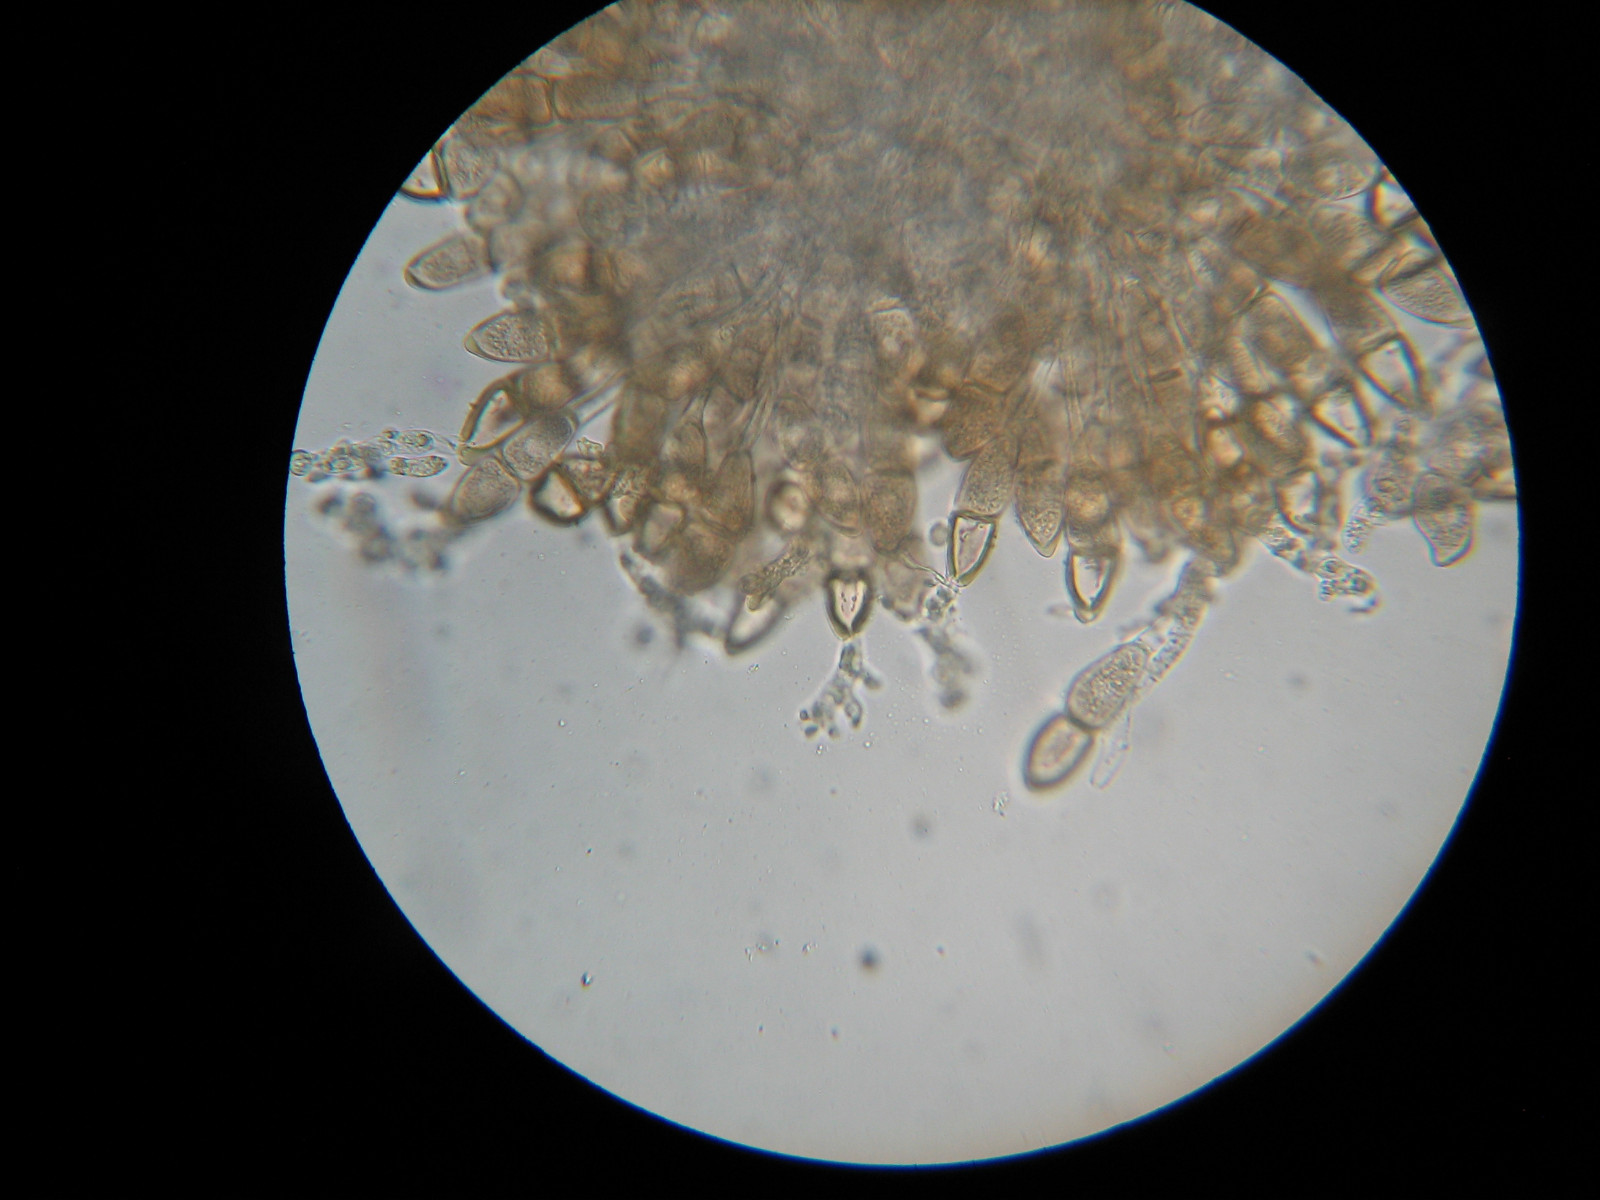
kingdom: Fungi
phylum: Basidiomycota
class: Pucciniomycetes
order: Pucciniales
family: Pucciniaceae
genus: Puccinia
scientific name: Puccinia malvacearum
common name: stokrose-tvecellerust
